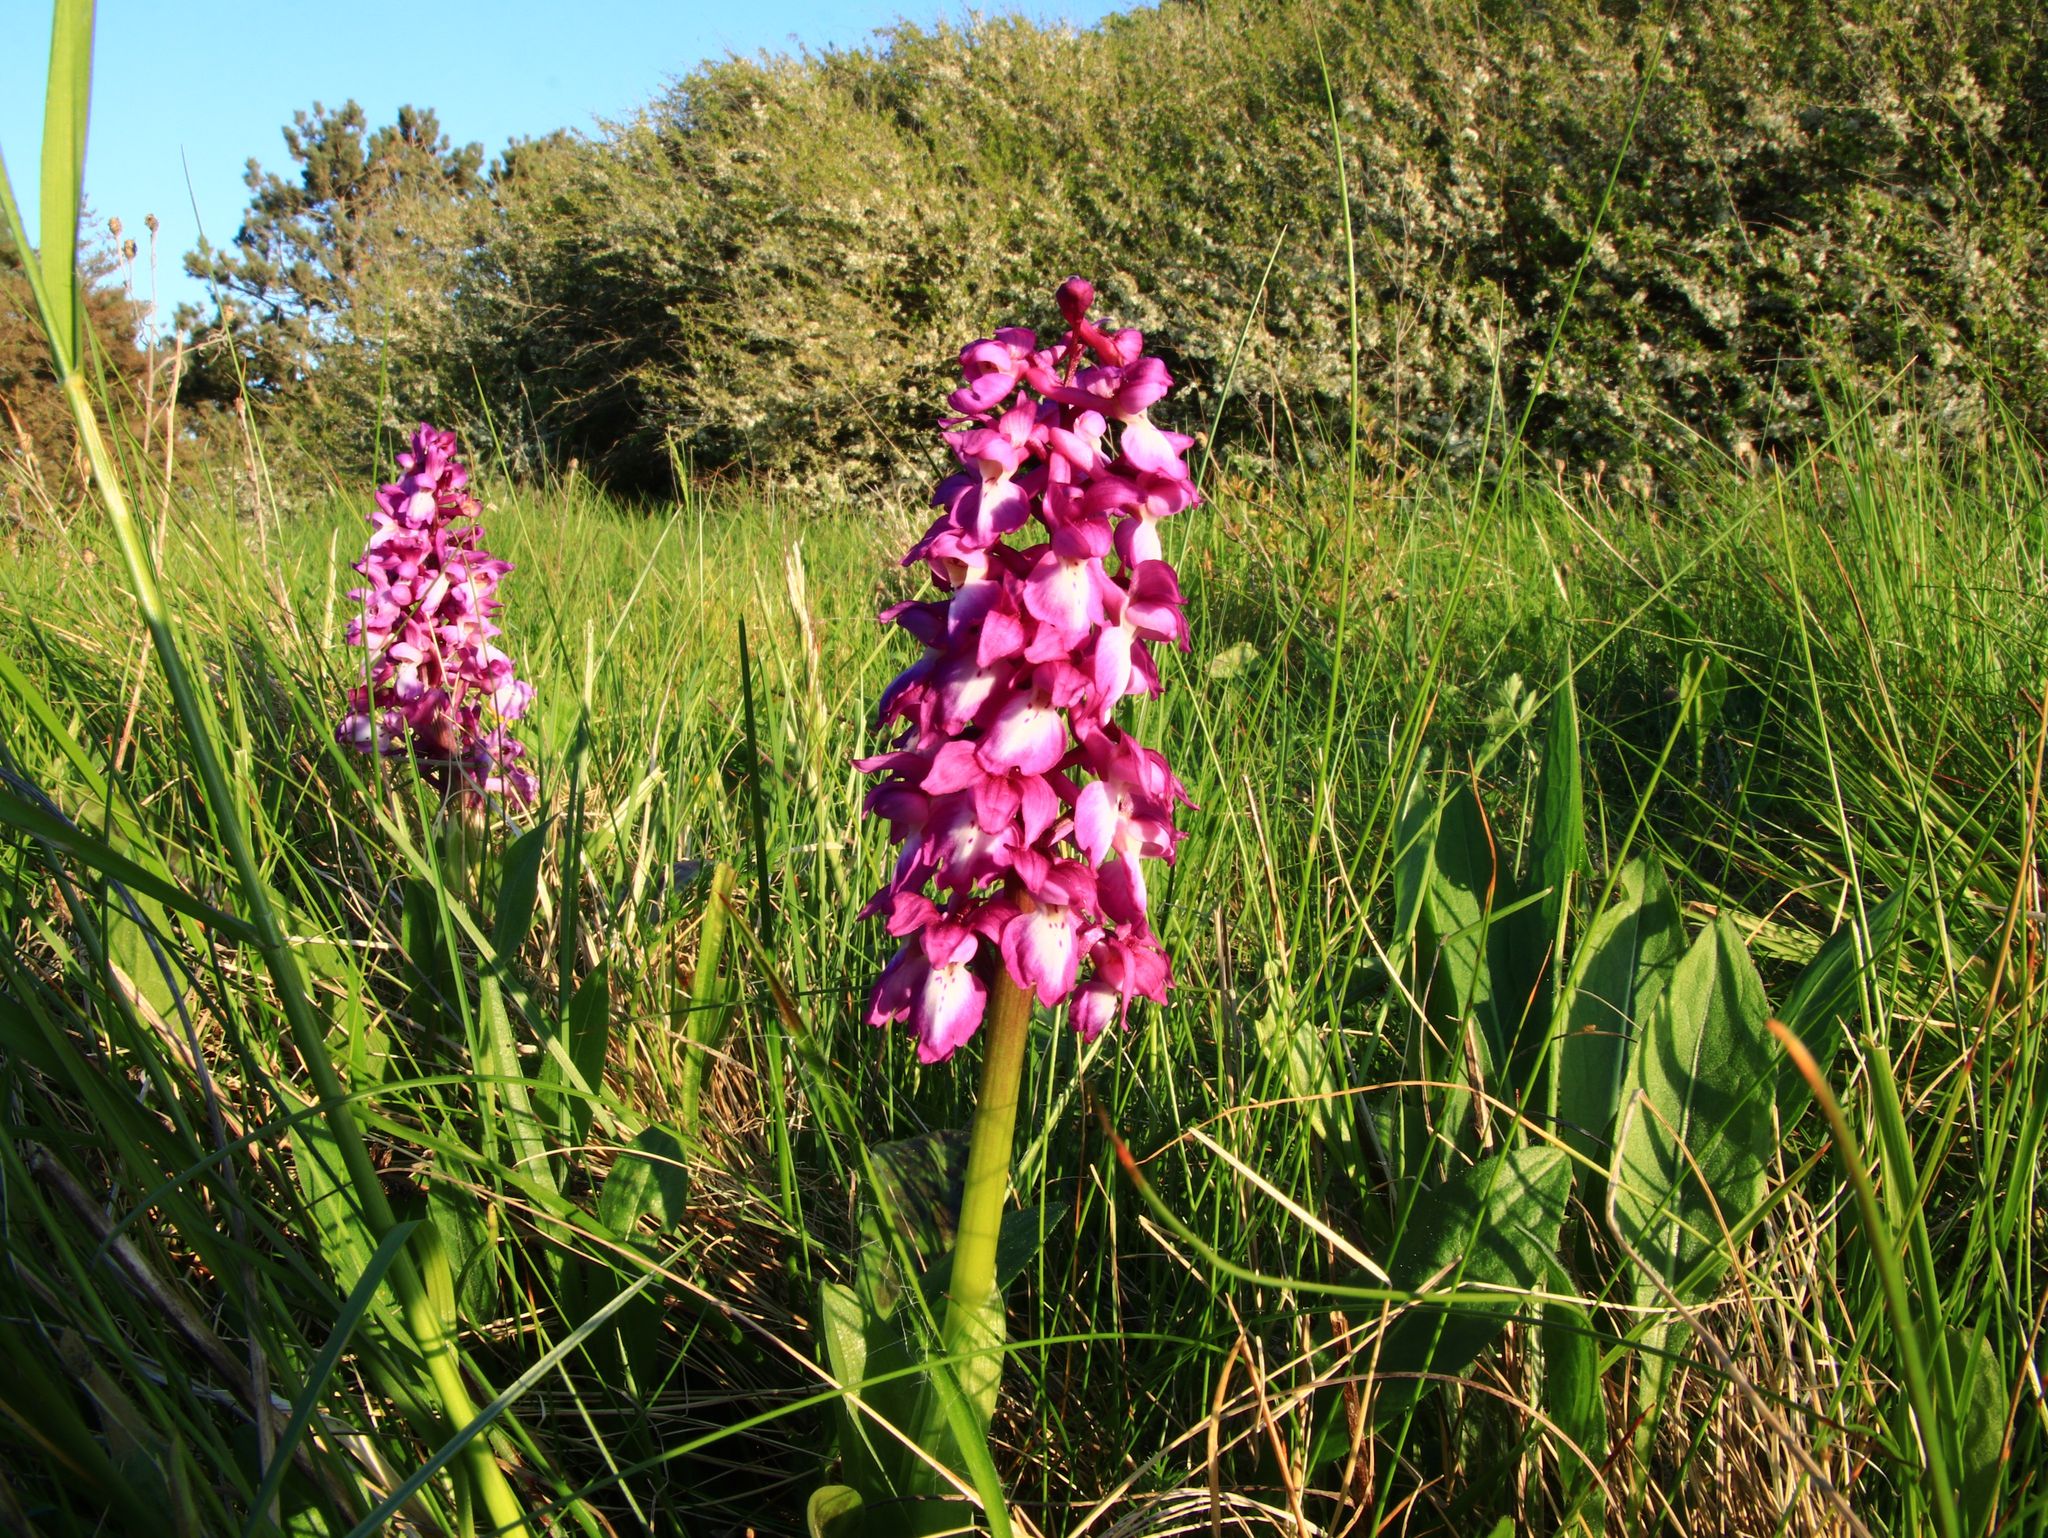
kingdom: Plantae
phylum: Tracheophyta
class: Liliopsida
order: Asparagales
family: Orchidaceae
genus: Orchis
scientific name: Orchis mascula
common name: Tyndakset gøgeurt
